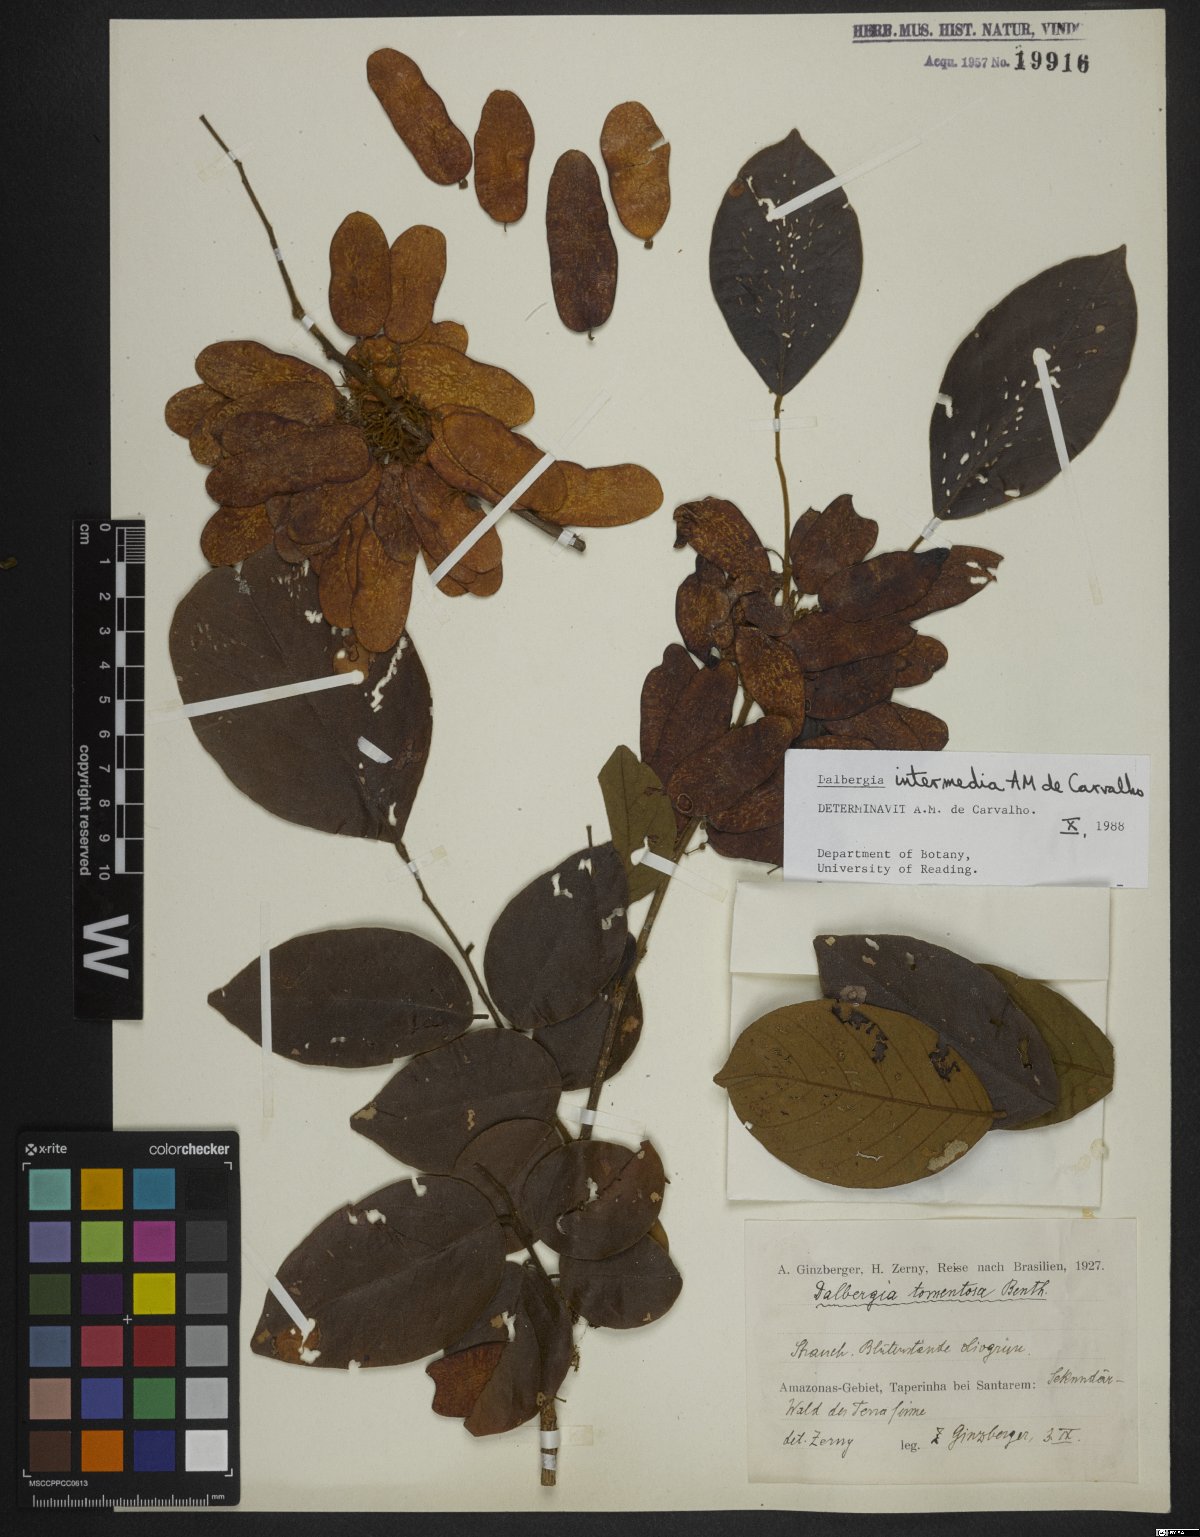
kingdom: Plantae
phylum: Tracheophyta
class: Magnoliopsida
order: Fabales
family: Fabaceae
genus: Dalbergia
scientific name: Dalbergia intermedia
